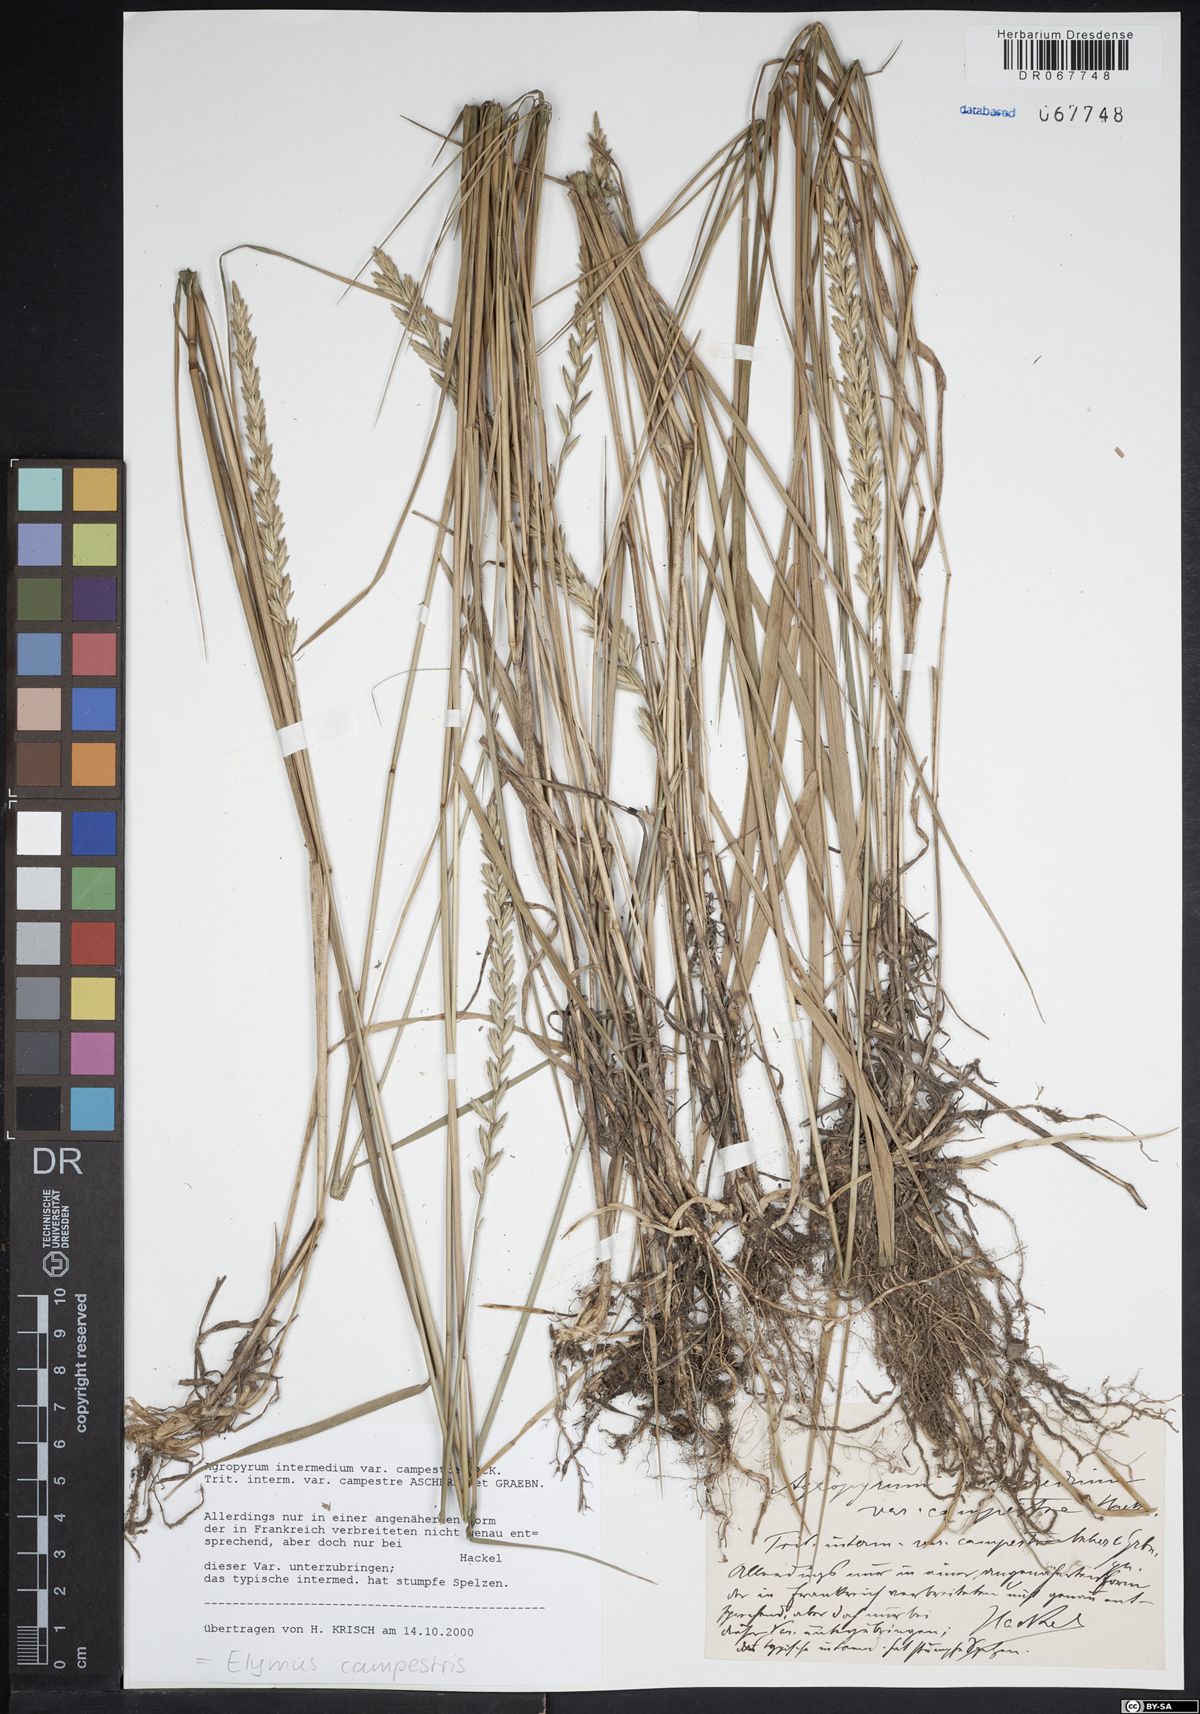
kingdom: Plantae
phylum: Tracheophyta
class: Liliopsida
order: Poales
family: Poaceae
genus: Elymus
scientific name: Elymus pungens
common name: Sea couch
